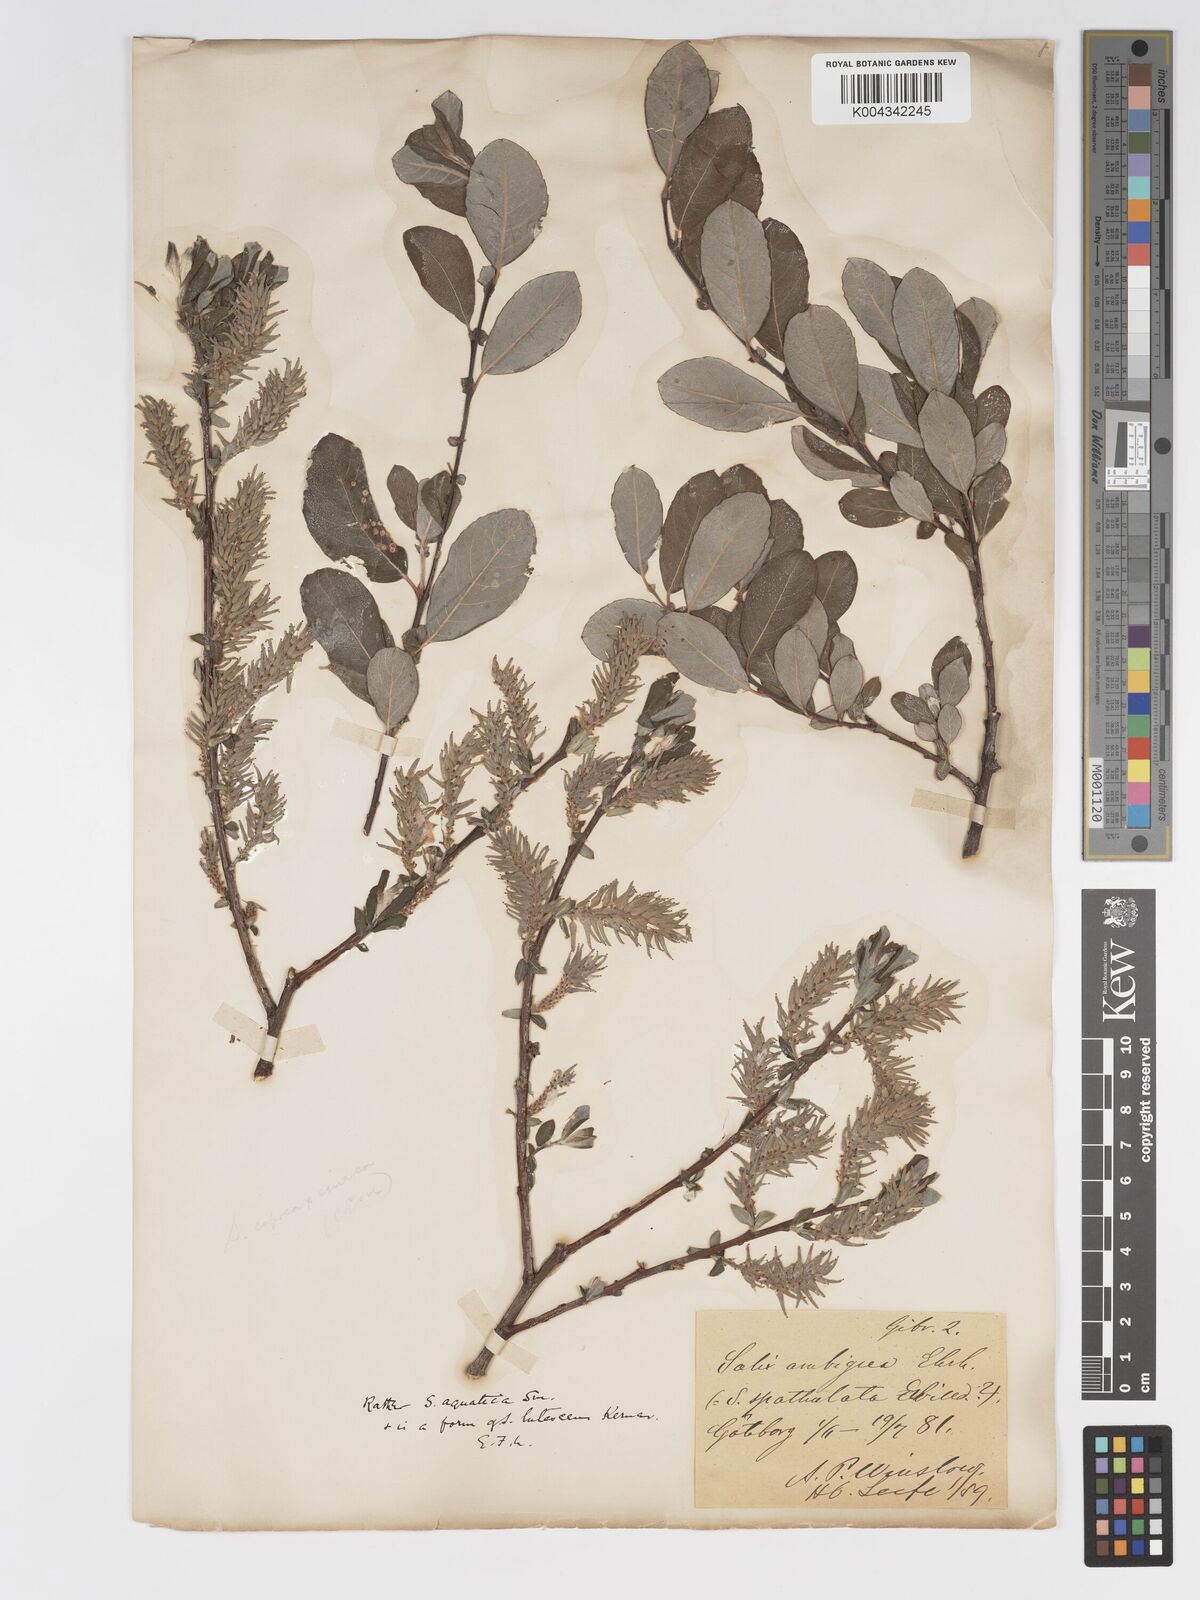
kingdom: Plantae
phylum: Tracheophyta
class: Magnoliopsida
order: Malpighiales
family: Salicaceae
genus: Salix
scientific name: Salix
